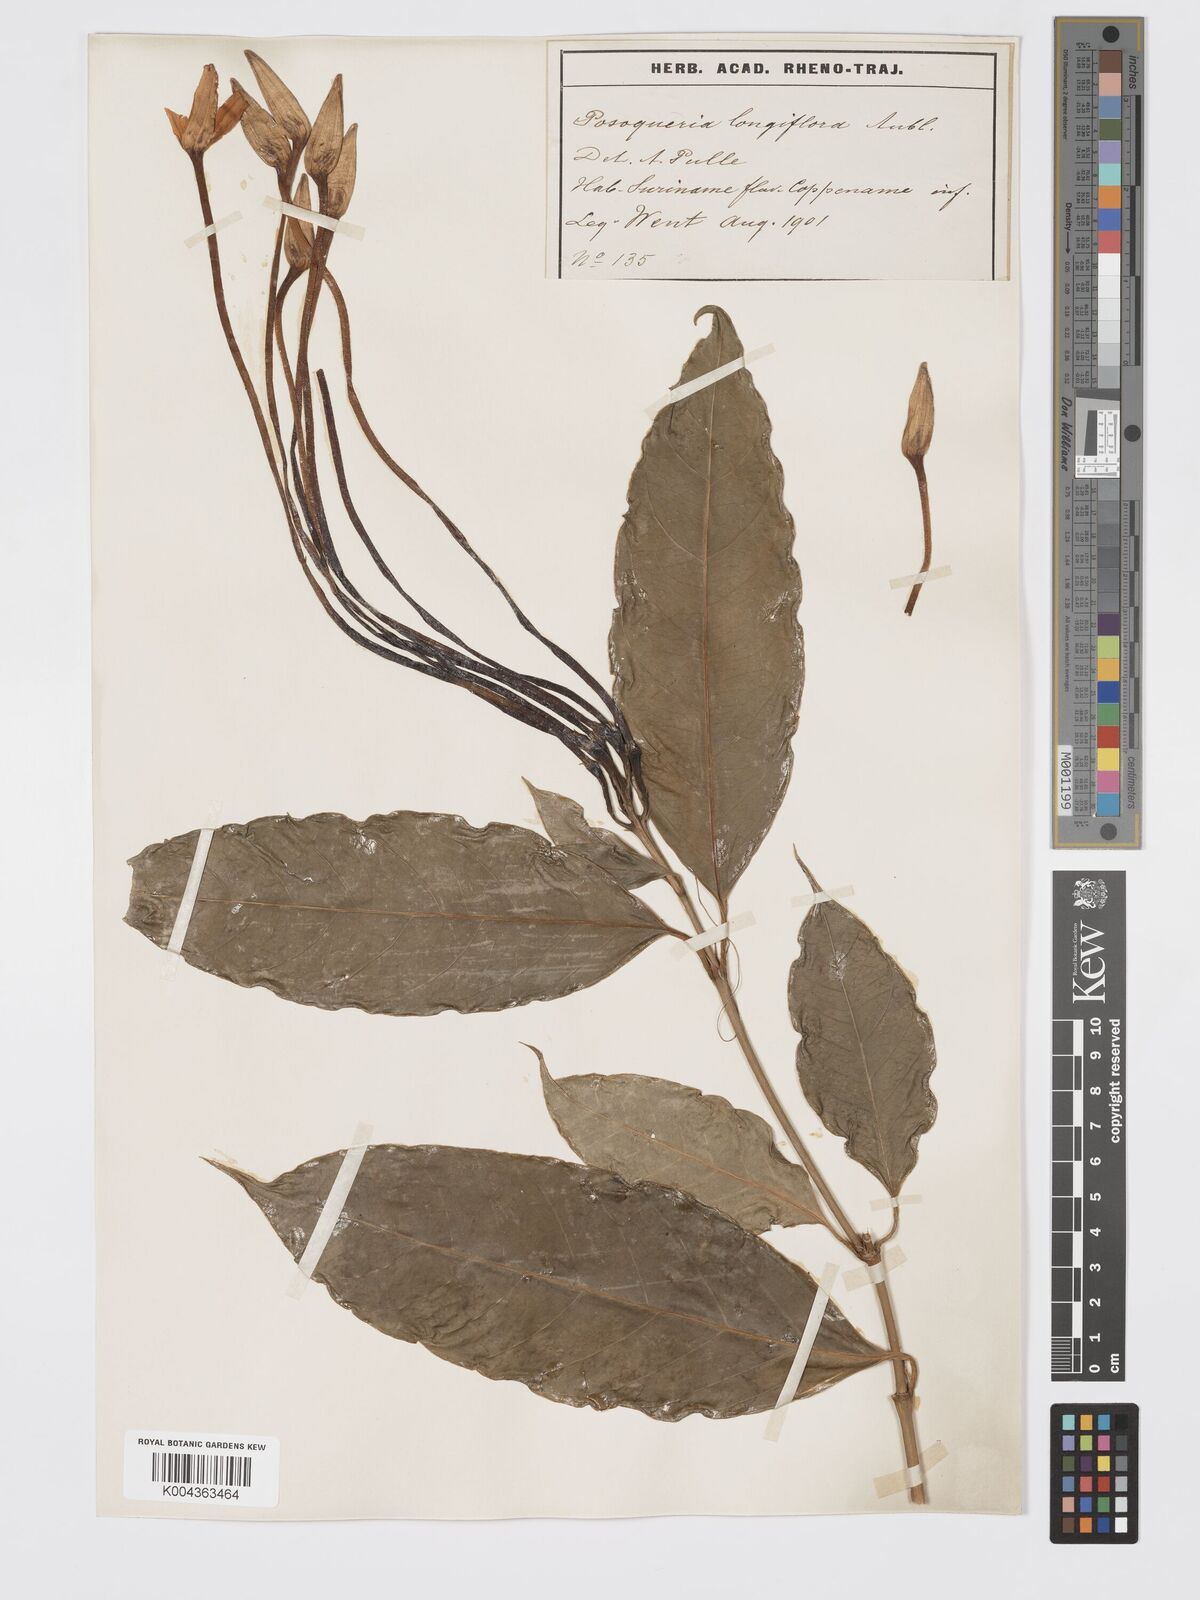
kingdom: Plantae
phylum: Tracheophyta
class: Magnoliopsida
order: Gentianales
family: Rubiaceae
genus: Posoqueria
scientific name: Posoqueria
